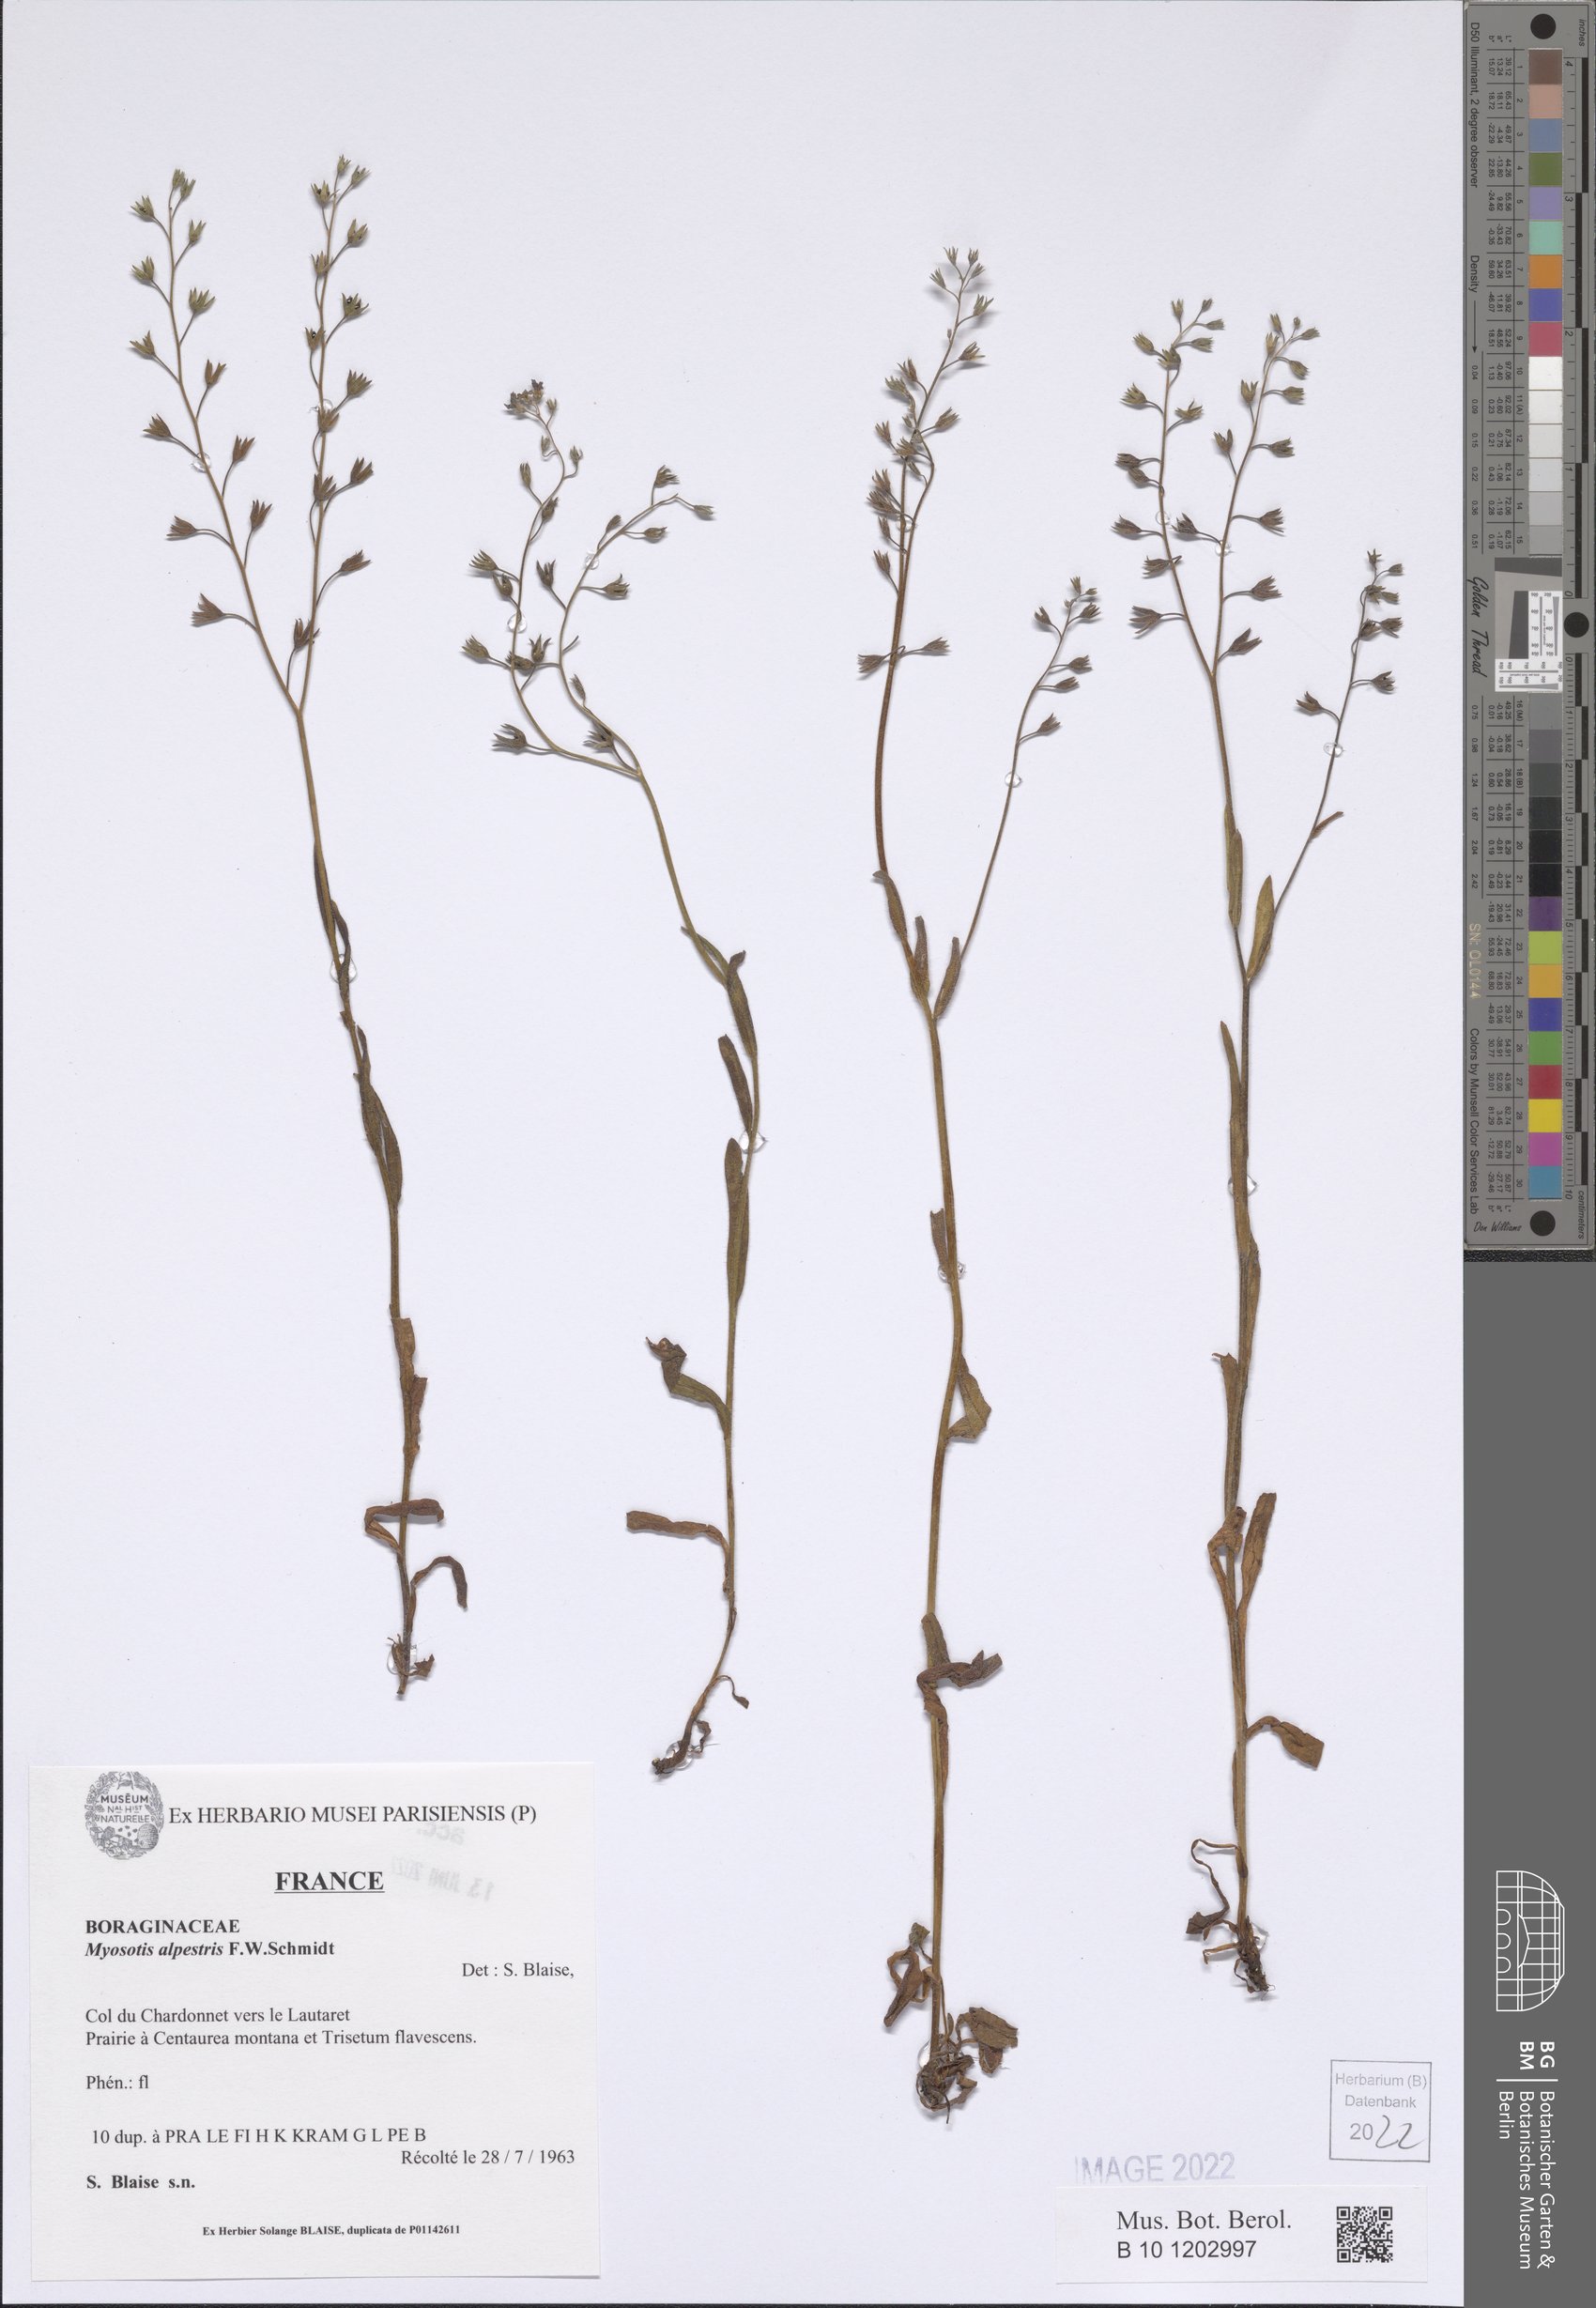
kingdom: Plantae
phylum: Tracheophyta
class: Magnoliopsida
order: Boraginales
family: Boraginaceae
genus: Myosotis
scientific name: Myosotis alpestris
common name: Alpine forget-me-not
